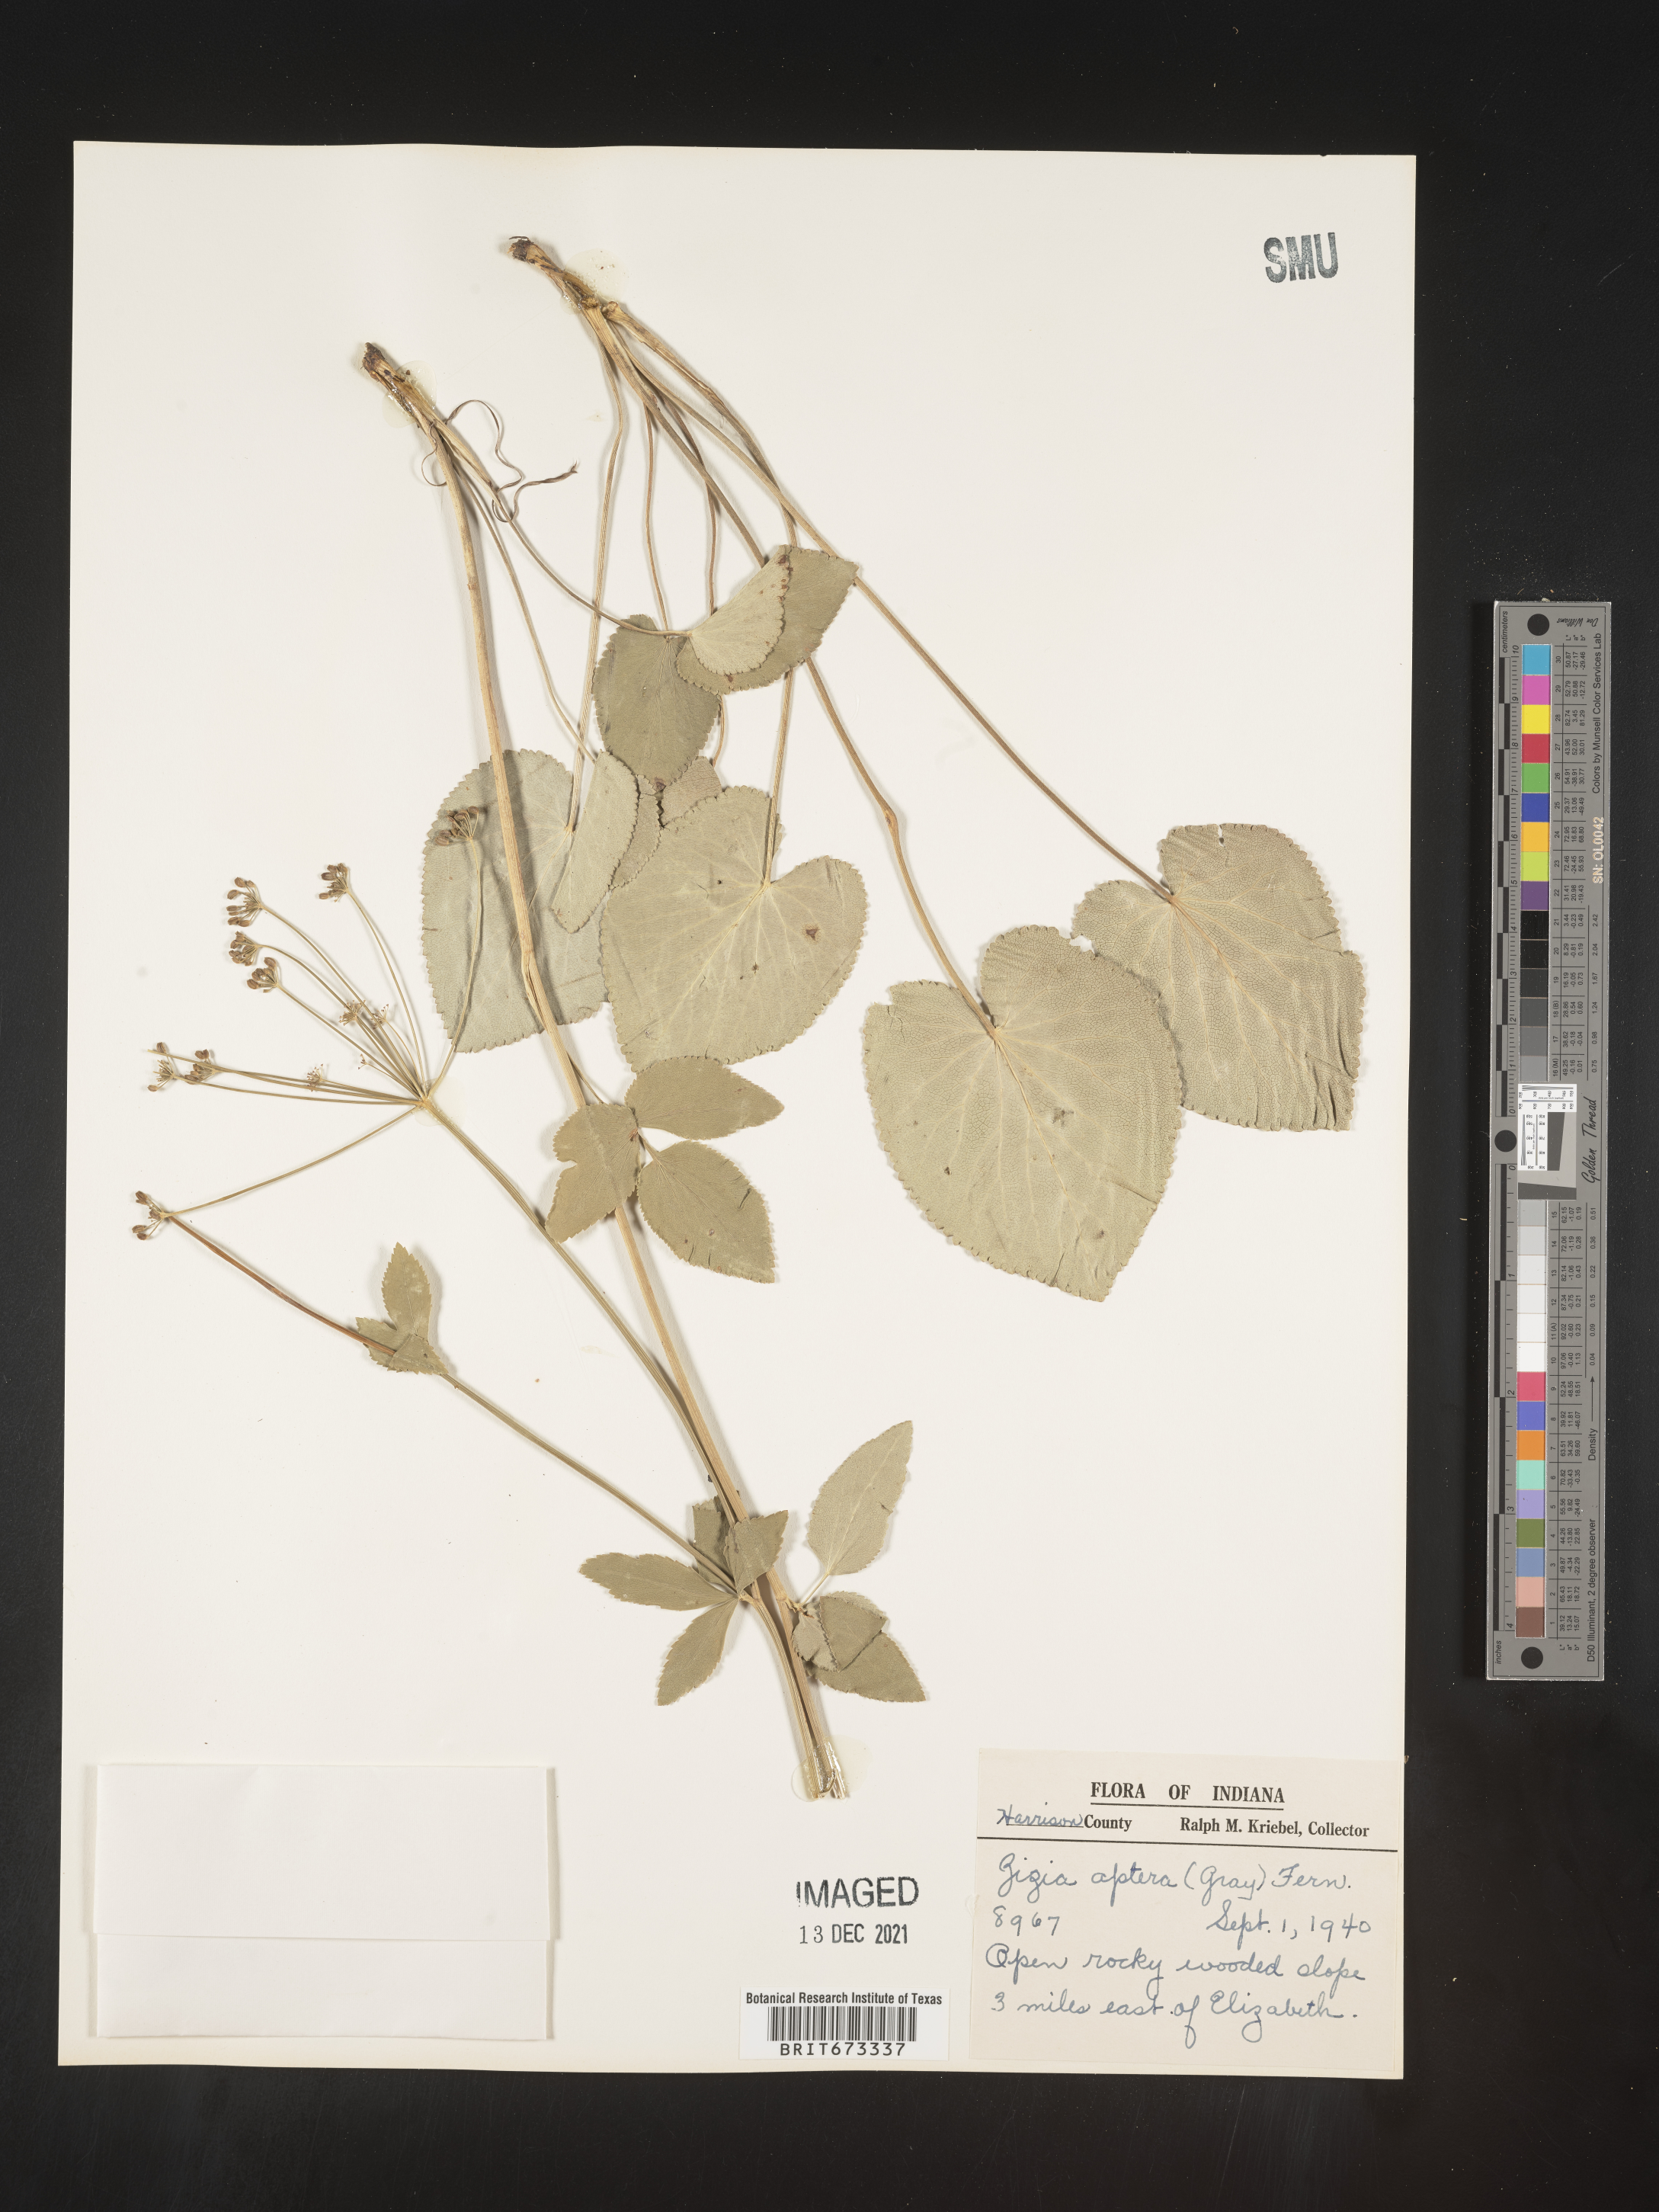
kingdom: Plantae
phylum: Tracheophyta
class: Magnoliopsida
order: Apiales
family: Apiaceae
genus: Zizia
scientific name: Zizia aptera
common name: Heart-leaved alexanders
